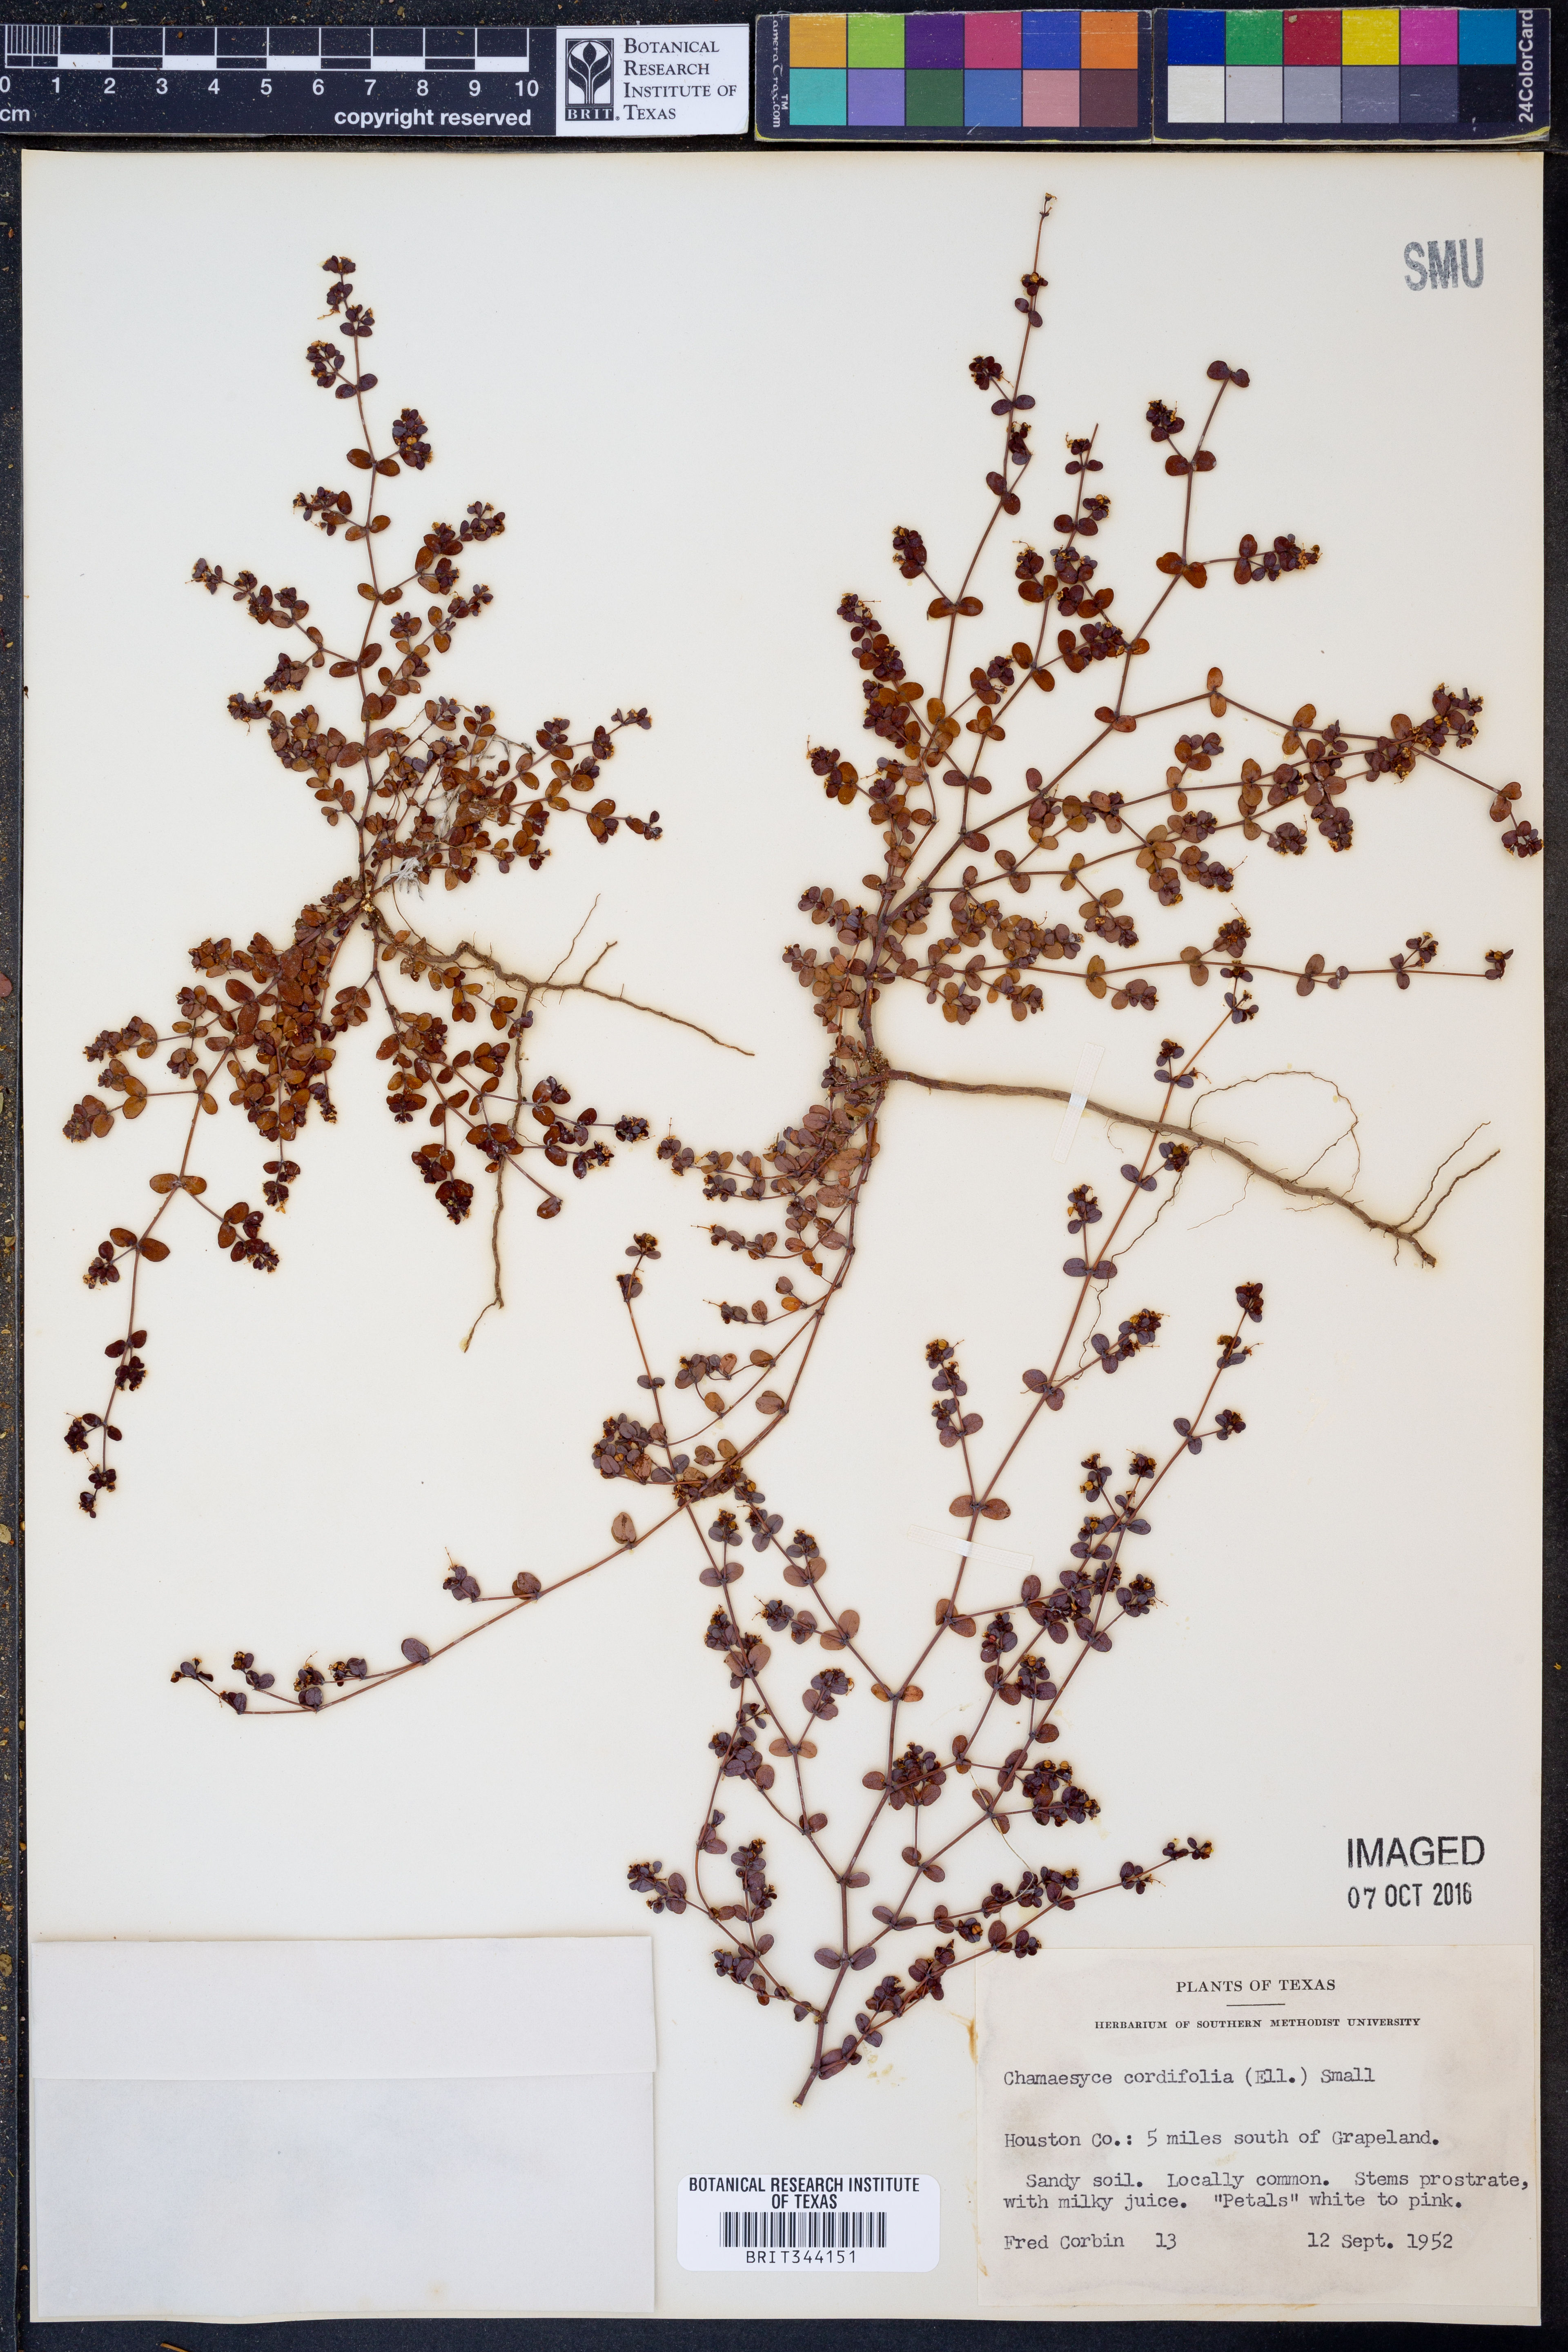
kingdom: Plantae
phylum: Tracheophyta
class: Magnoliopsida
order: Malpighiales
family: Euphorbiaceae
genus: Euphorbia
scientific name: Euphorbia cordifolia
